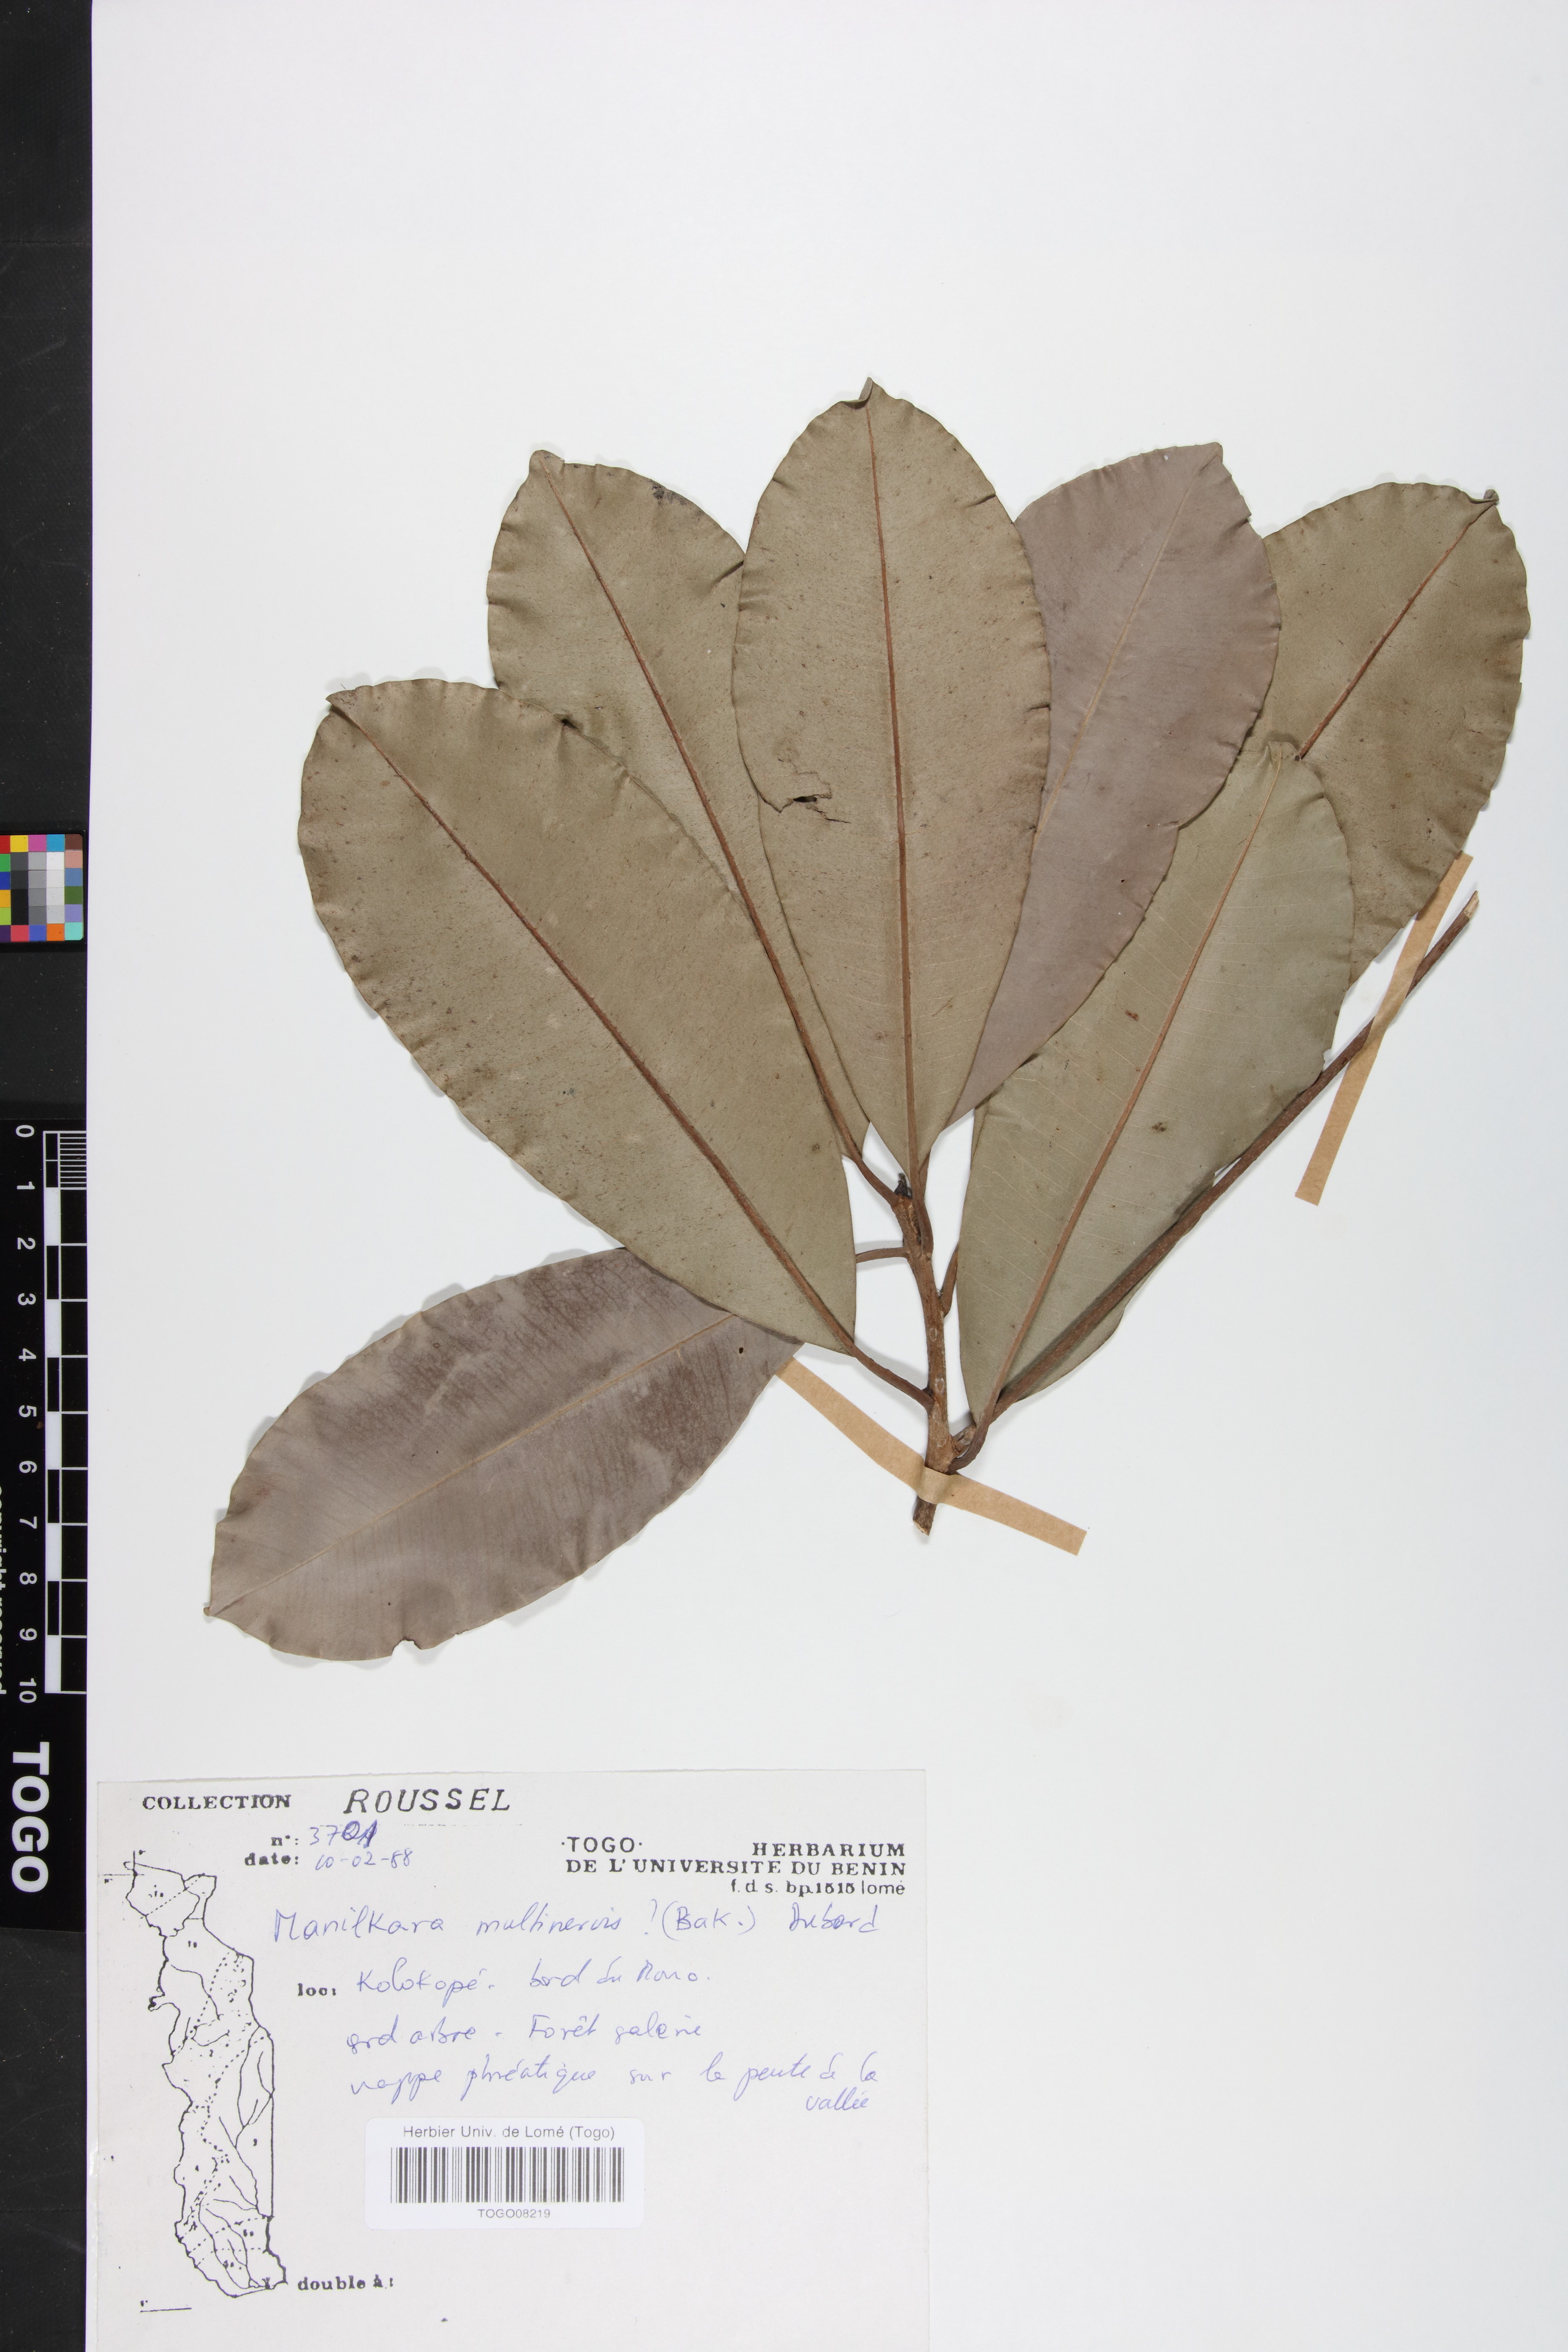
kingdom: Plantae
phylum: Tracheophyta
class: Magnoliopsida
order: Ericales
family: Sapotaceae
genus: Manilkara
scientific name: Manilkara obovata
